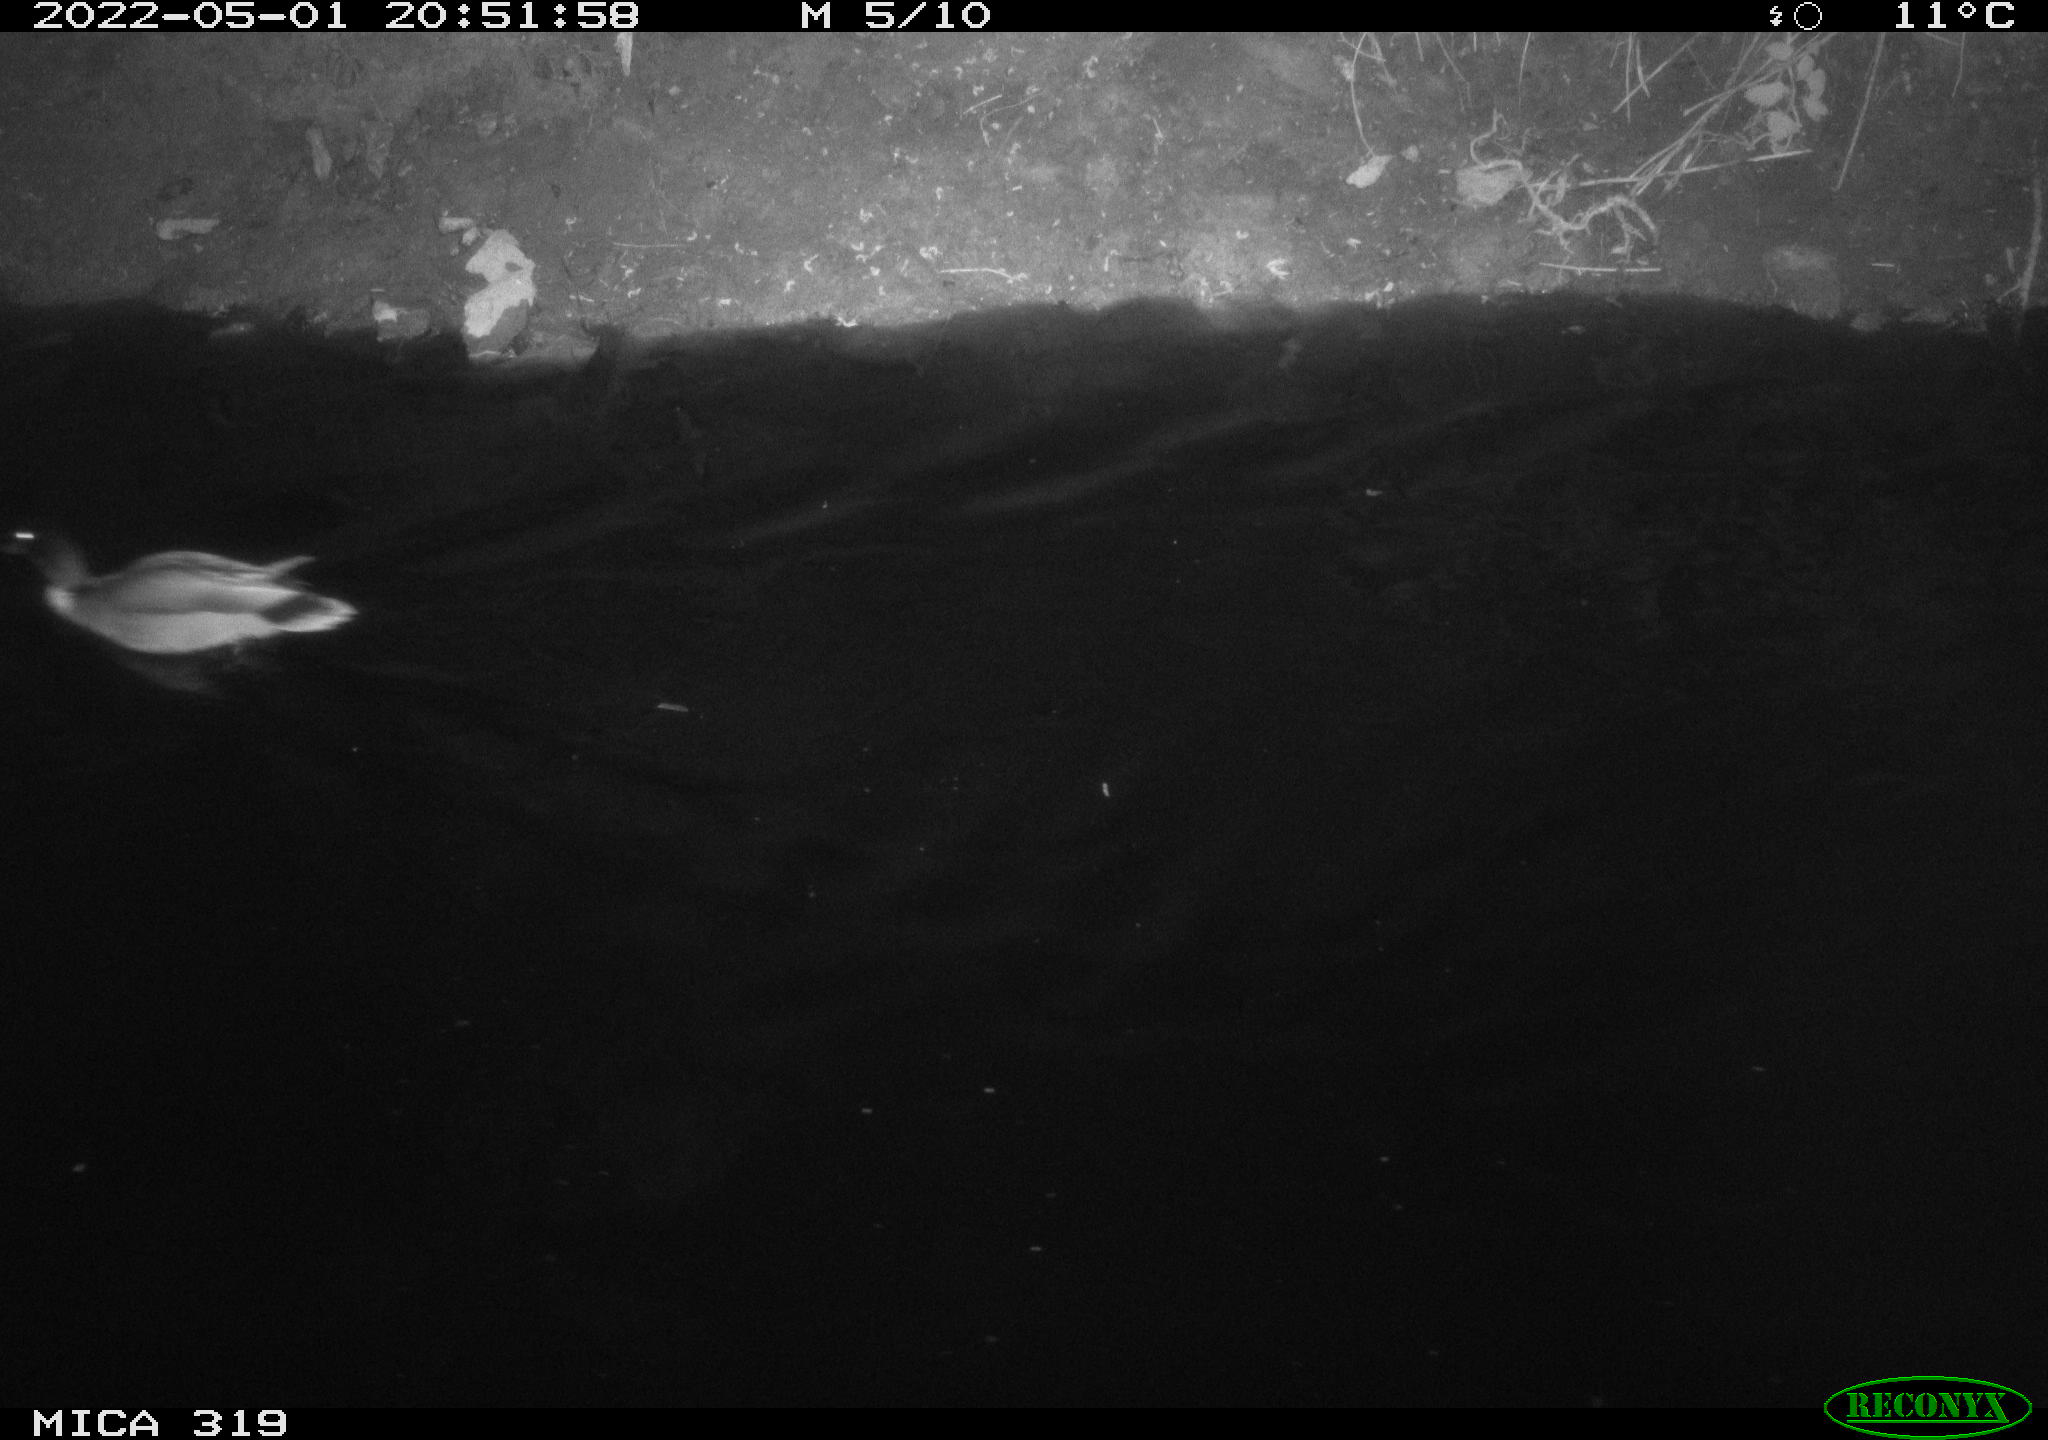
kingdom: Animalia
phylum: Chordata
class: Aves
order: Anseriformes
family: Anatidae
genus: Anas
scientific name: Anas platyrhynchos
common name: Mallard
